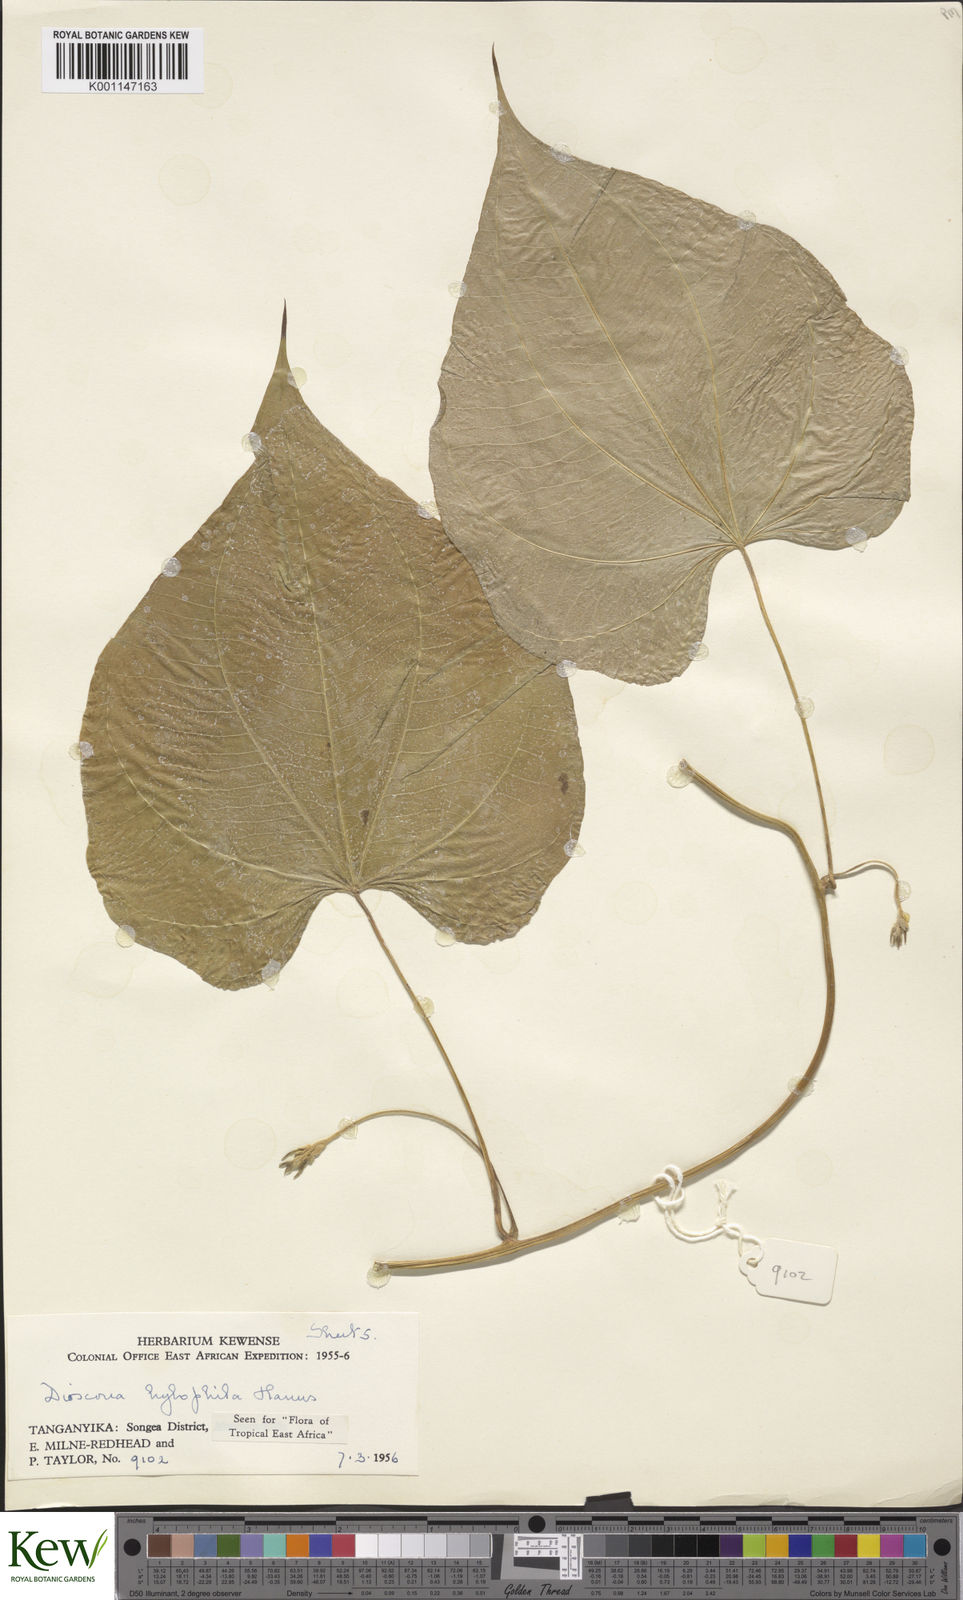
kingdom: Plantae
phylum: Tracheophyta
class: Liliopsida
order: Dioscoreales
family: Dioscoreaceae
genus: Dioscorea
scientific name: Dioscorea
